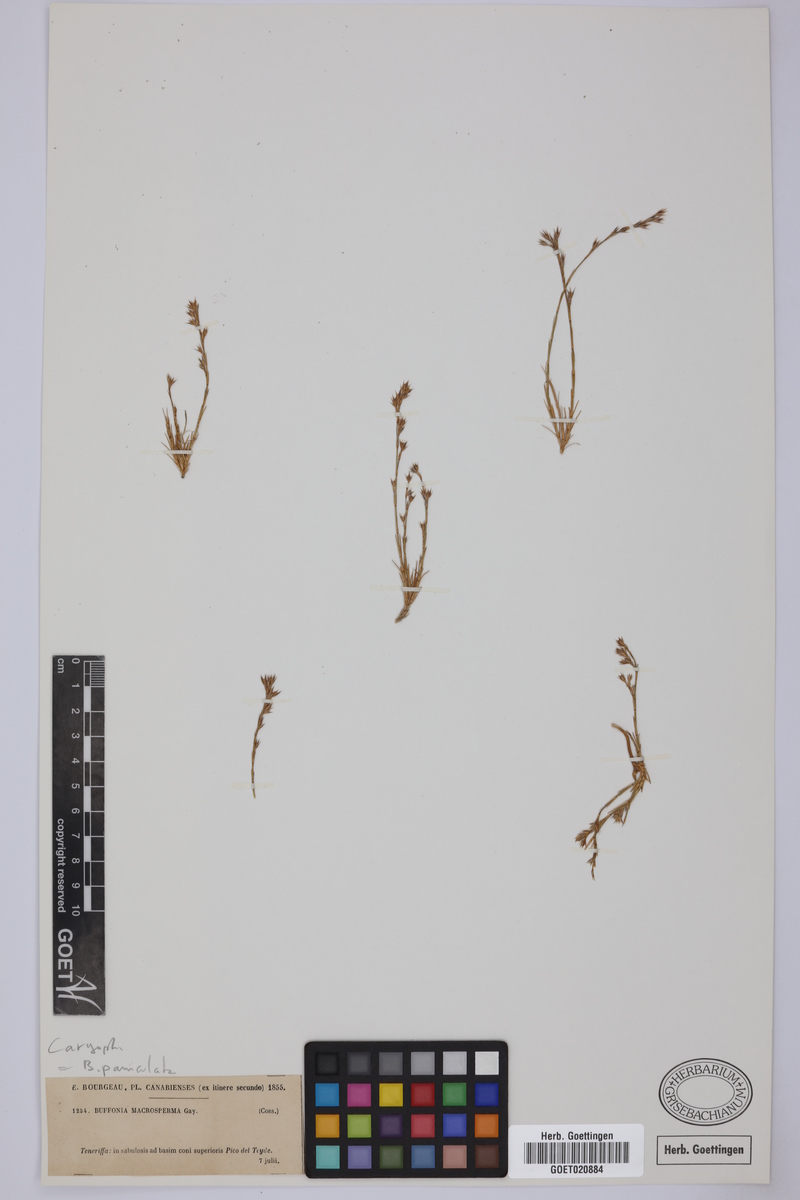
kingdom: Plantae
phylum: Tracheophyta
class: Magnoliopsida
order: Caryophyllales
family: Caryophyllaceae
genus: Bufonia
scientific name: Bufonia paniculata
